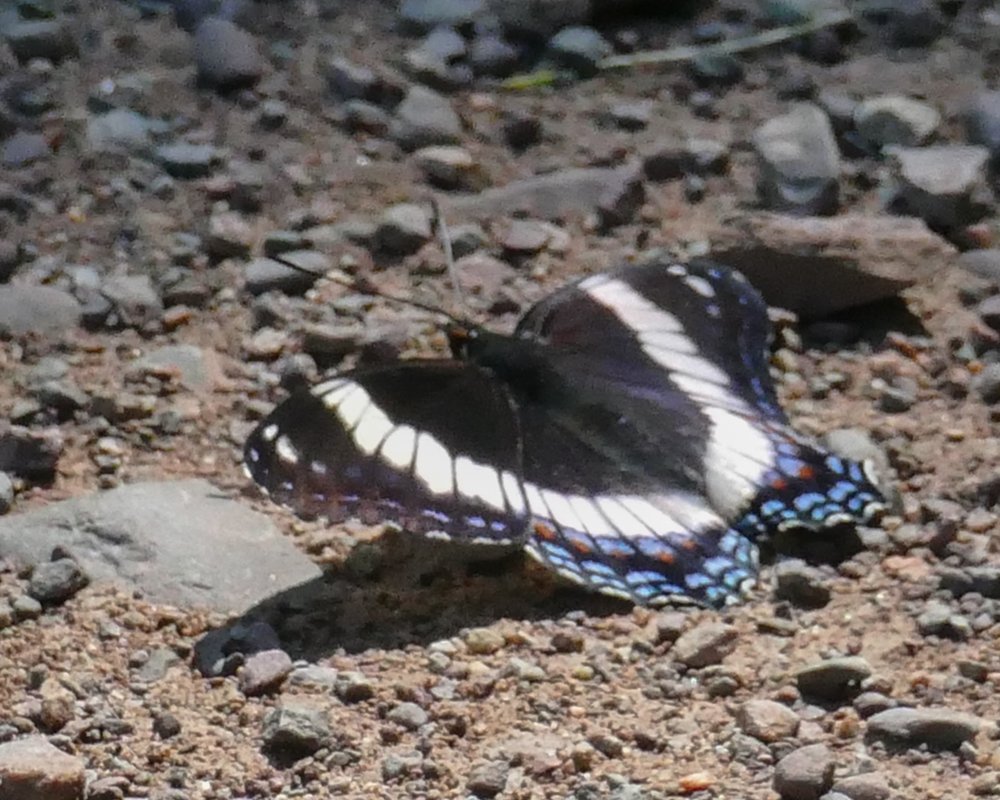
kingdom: Animalia
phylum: Arthropoda
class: Insecta
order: Lepidoptera
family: Nymphalidae
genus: Limenitis
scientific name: Limenitis arthemis
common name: Red-spotted Admiral
